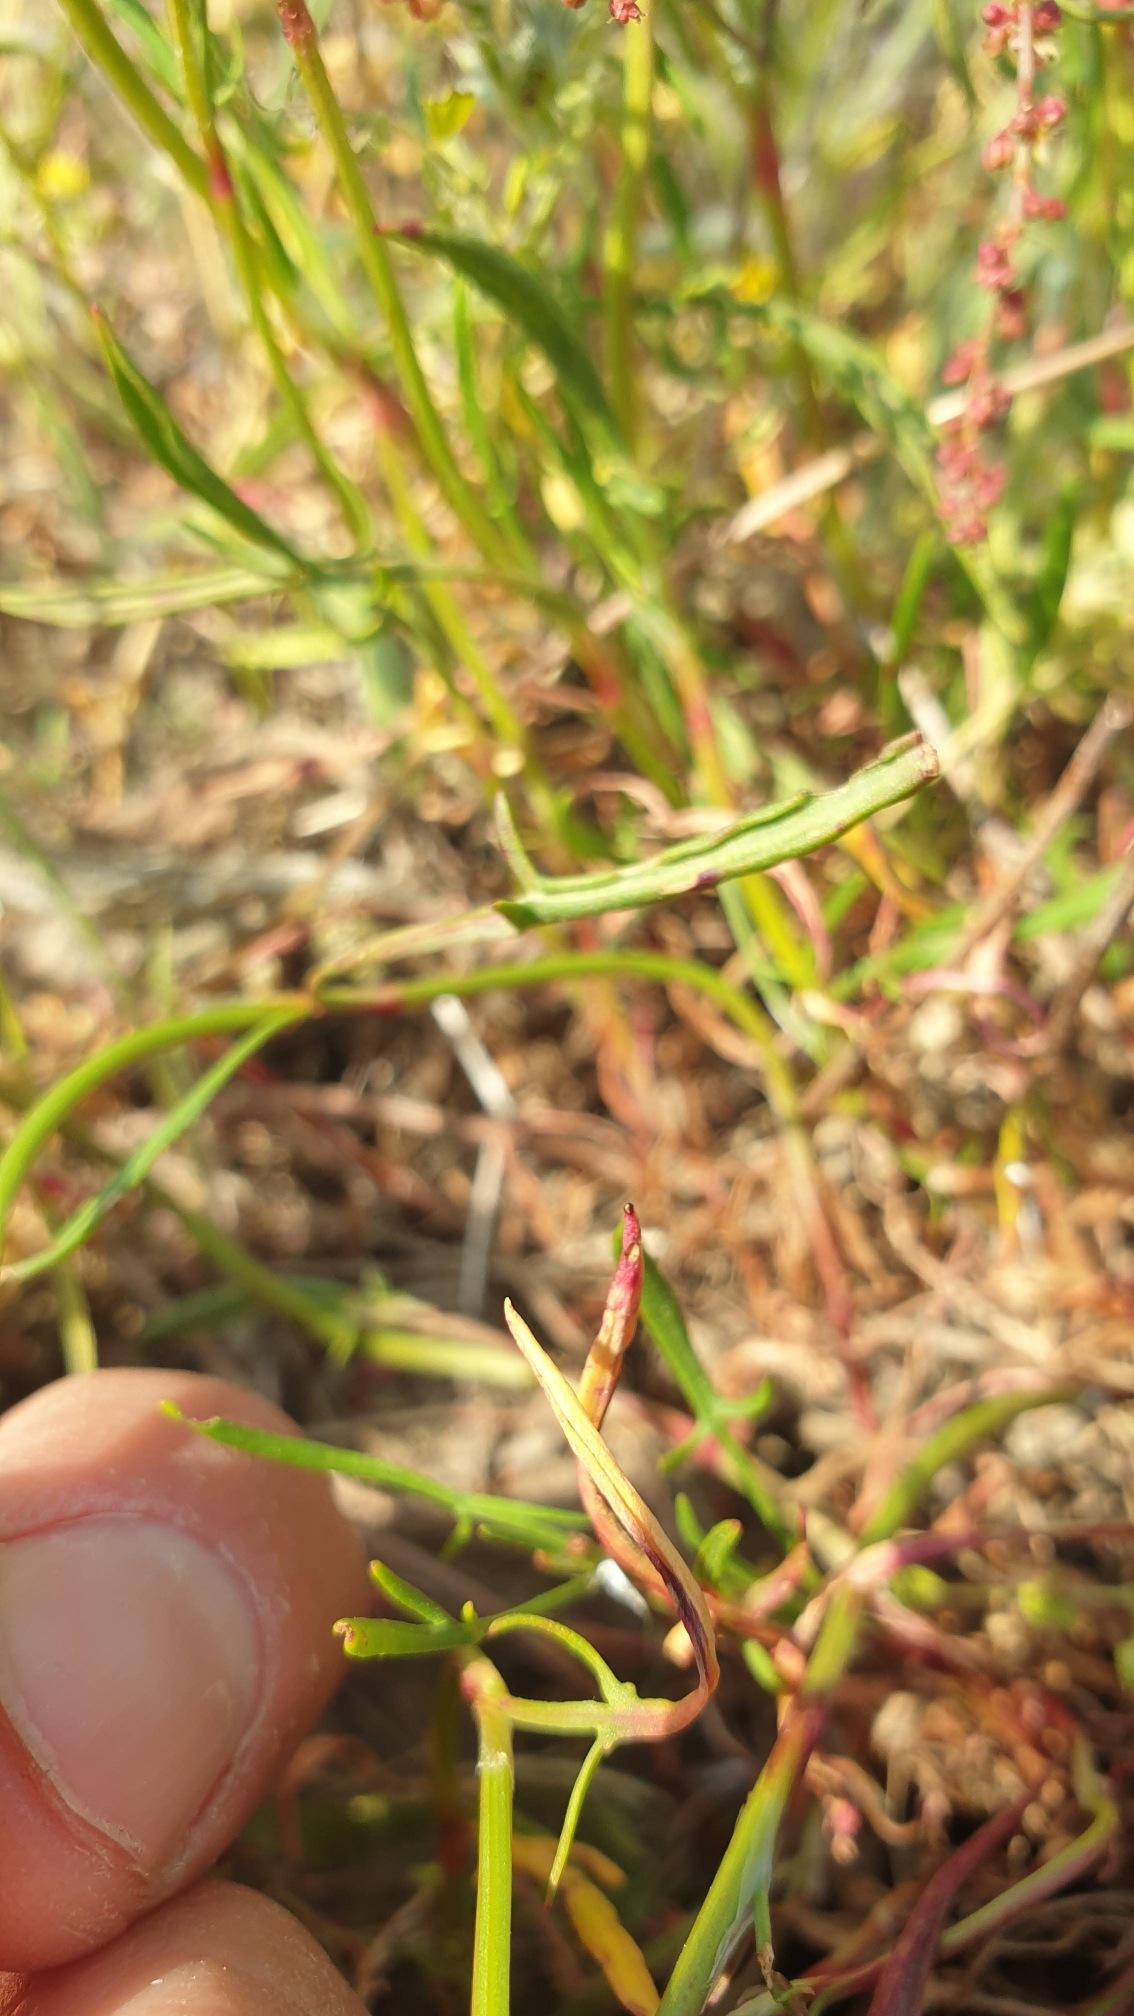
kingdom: Plantae
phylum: Tracheophyta
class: Magnoliopsida
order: Caryophyllales
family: Polygonaceae
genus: Rumex
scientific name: Rumex acetosella
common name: Rødknæ
